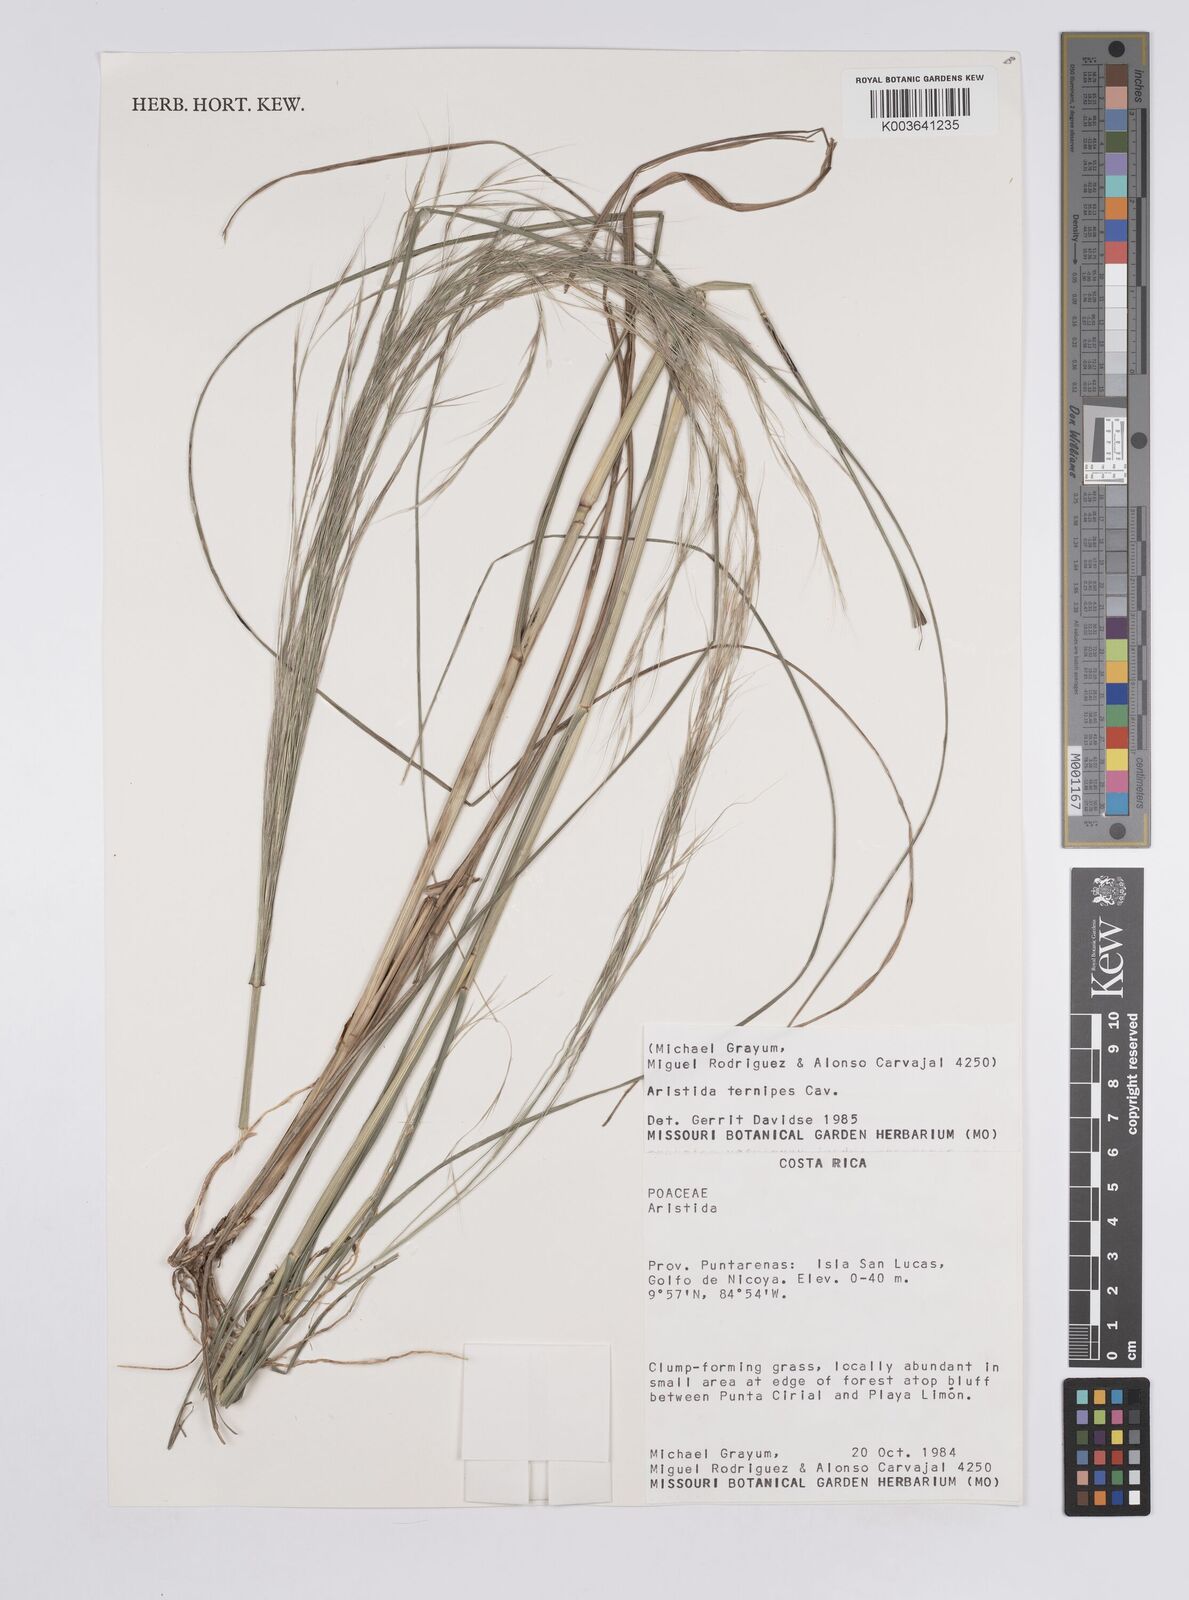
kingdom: Plantae
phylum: Tracheophyta
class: Liliopsida
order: Poales
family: Poaceae
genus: Aristida
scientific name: Aristida
